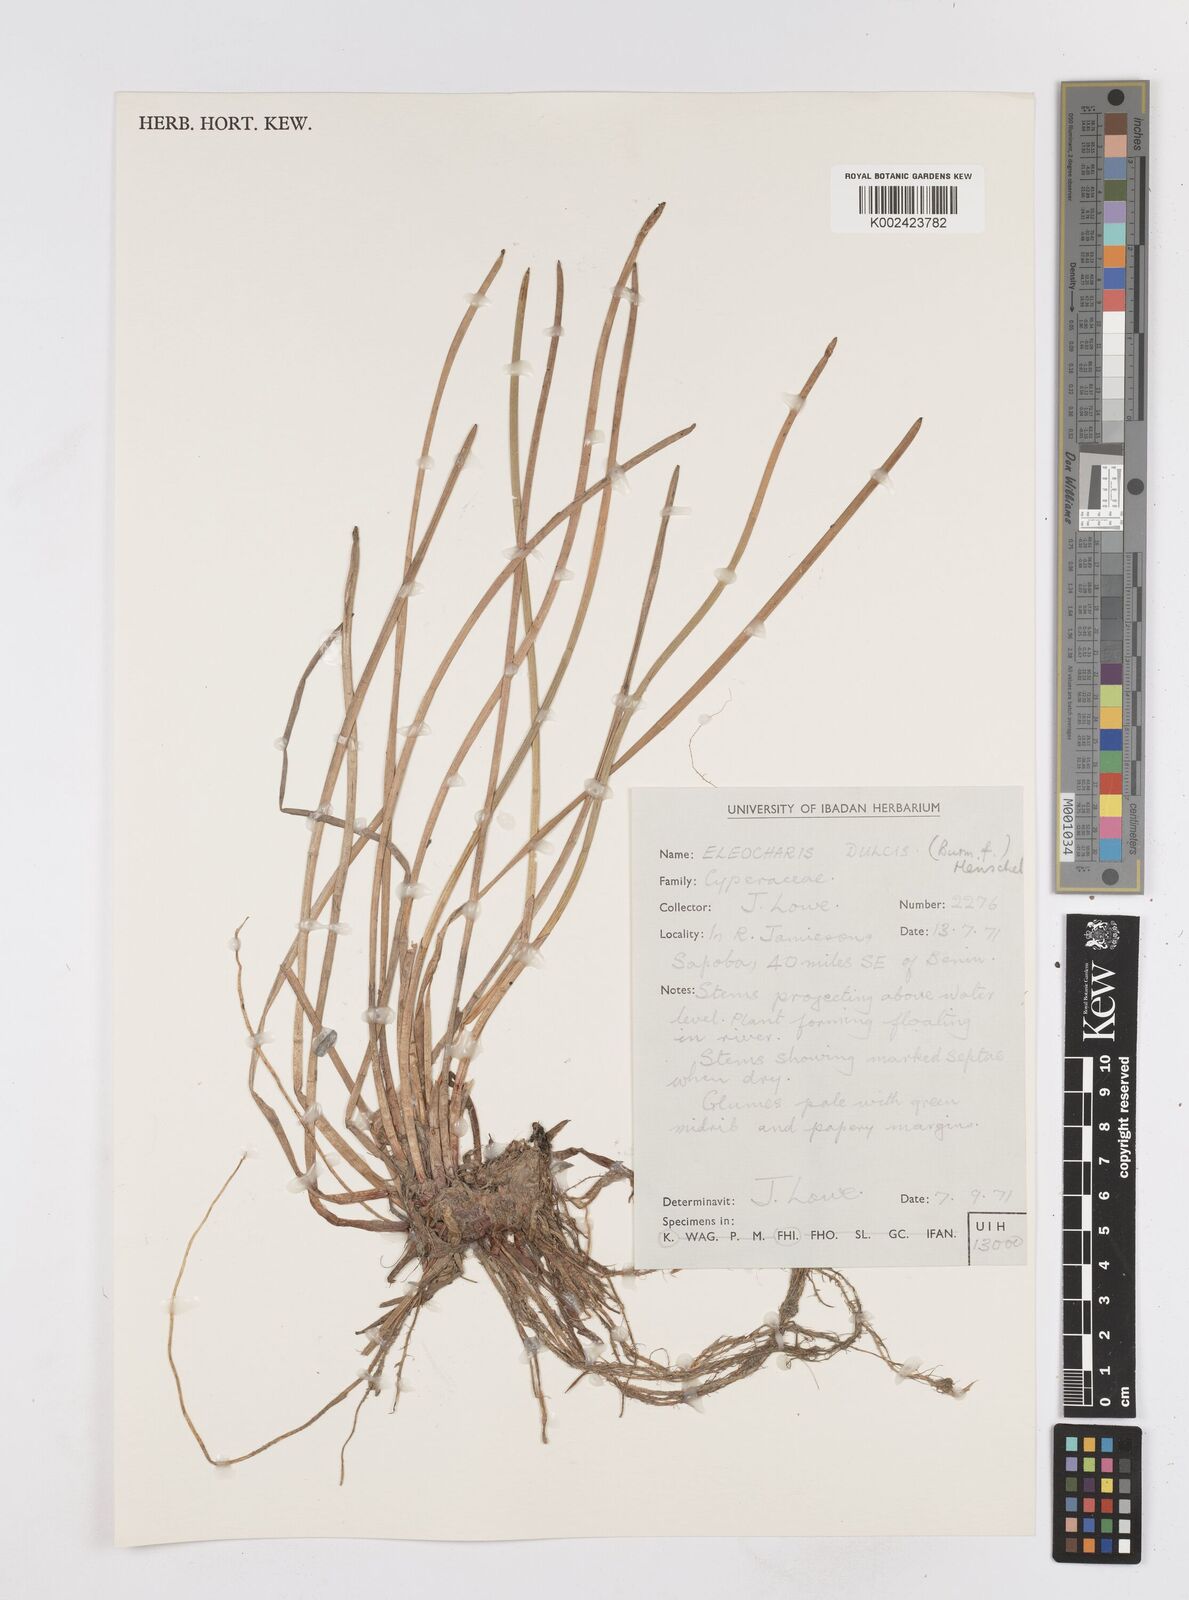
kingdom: Plantae
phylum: Tracheophyta
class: Liliopsida
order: Poales
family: Cyperaceae
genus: Eleocharis
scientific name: Eleocharis dulcis
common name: Chinese water chestnut
